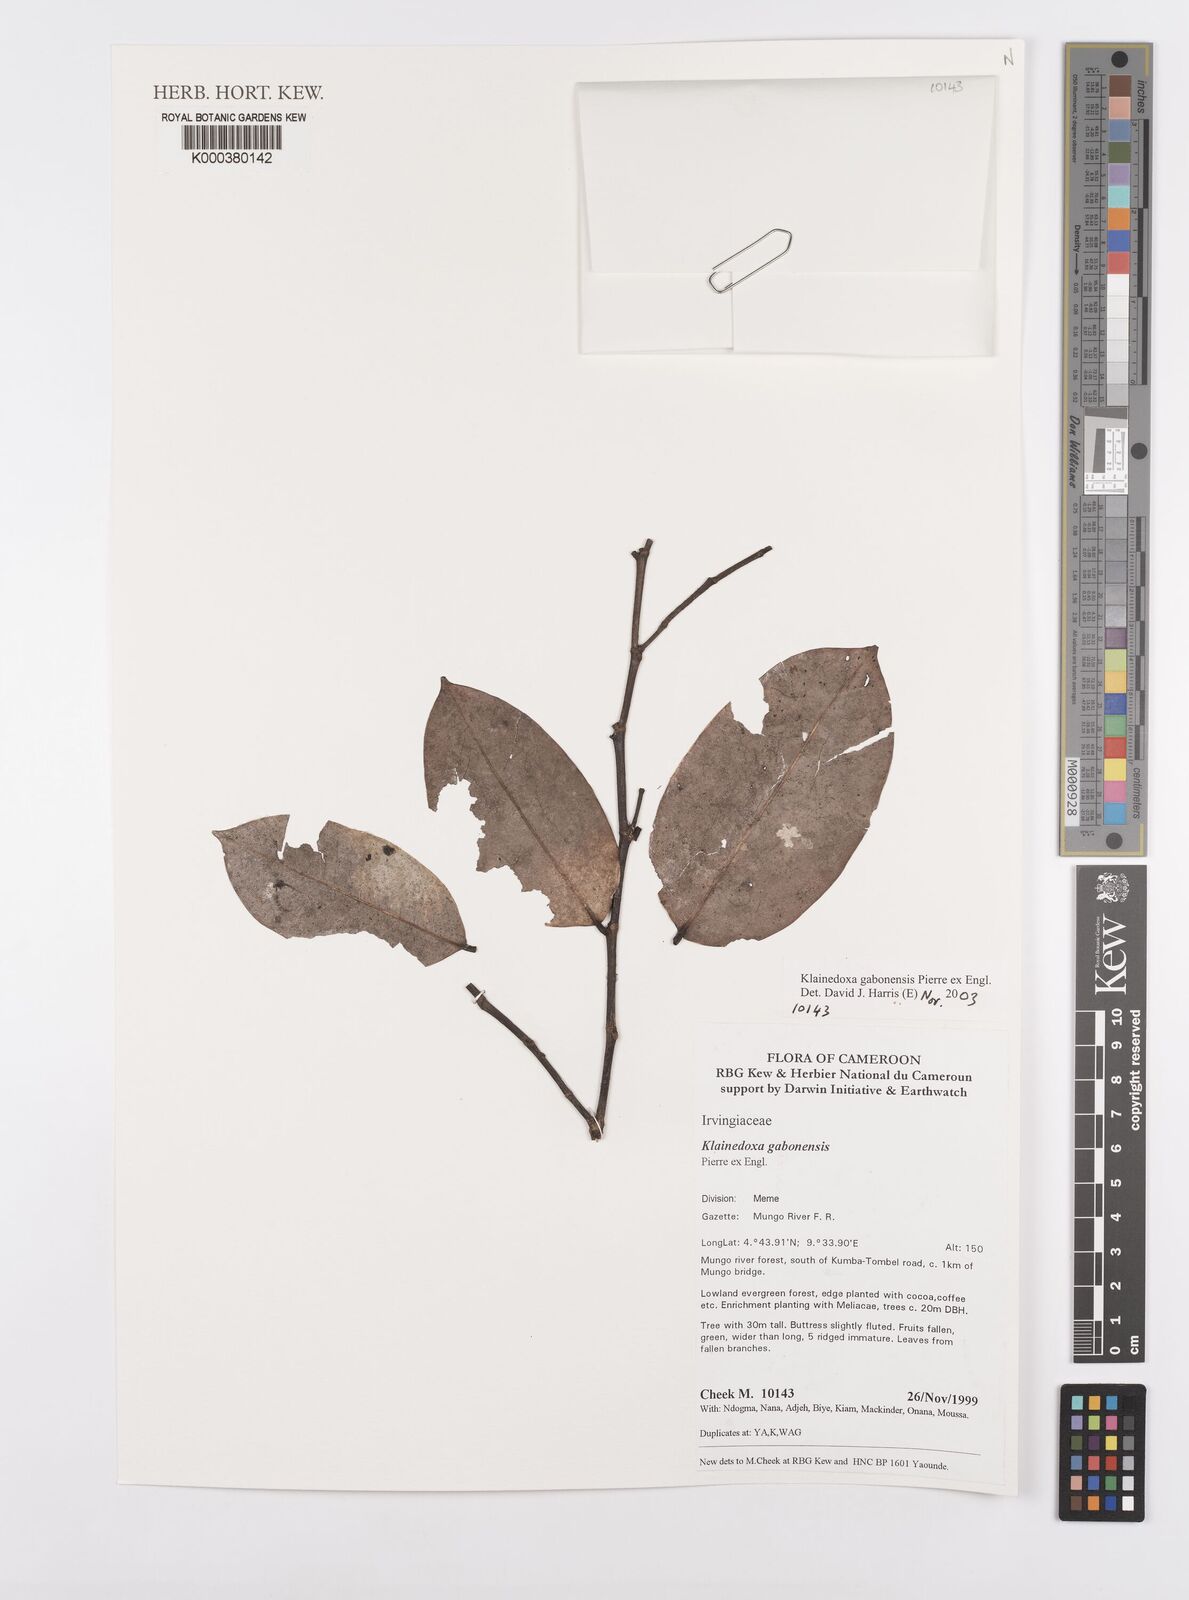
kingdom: Plantae
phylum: Tracheophyta
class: Magnoliopsida
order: Malpighiales
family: Irvingiaceae
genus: Klainedoxa
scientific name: Klainedoxa gabonensis
